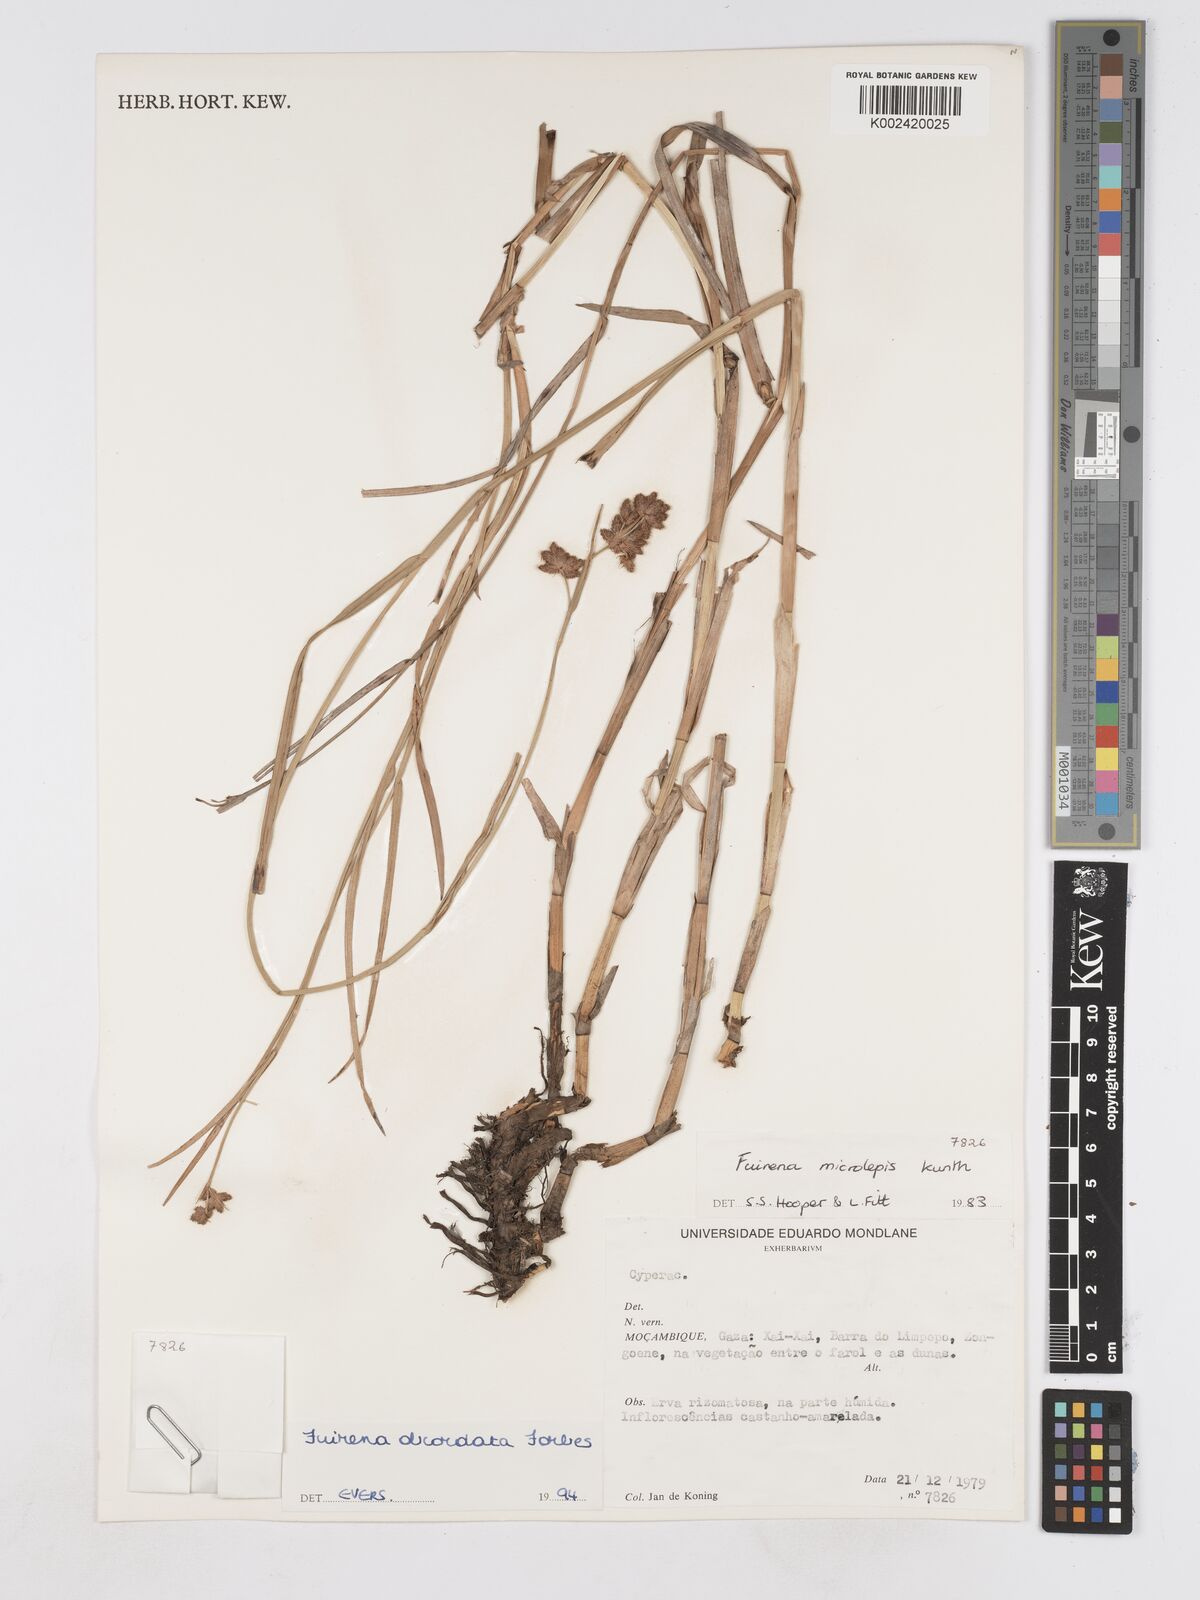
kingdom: Plantae
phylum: Tracheophyta
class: Liliopsida
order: Poales
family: Cyperaceae
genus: Fuirena
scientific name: Fuirena obcordata
